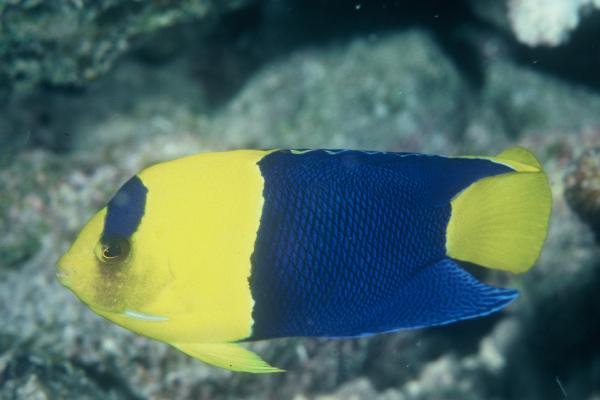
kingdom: Animalia
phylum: Chordata
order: Perciformes
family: Pomacanthidae
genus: Centropyge
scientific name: Centropyge bicolor
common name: Bicolor angelfish
